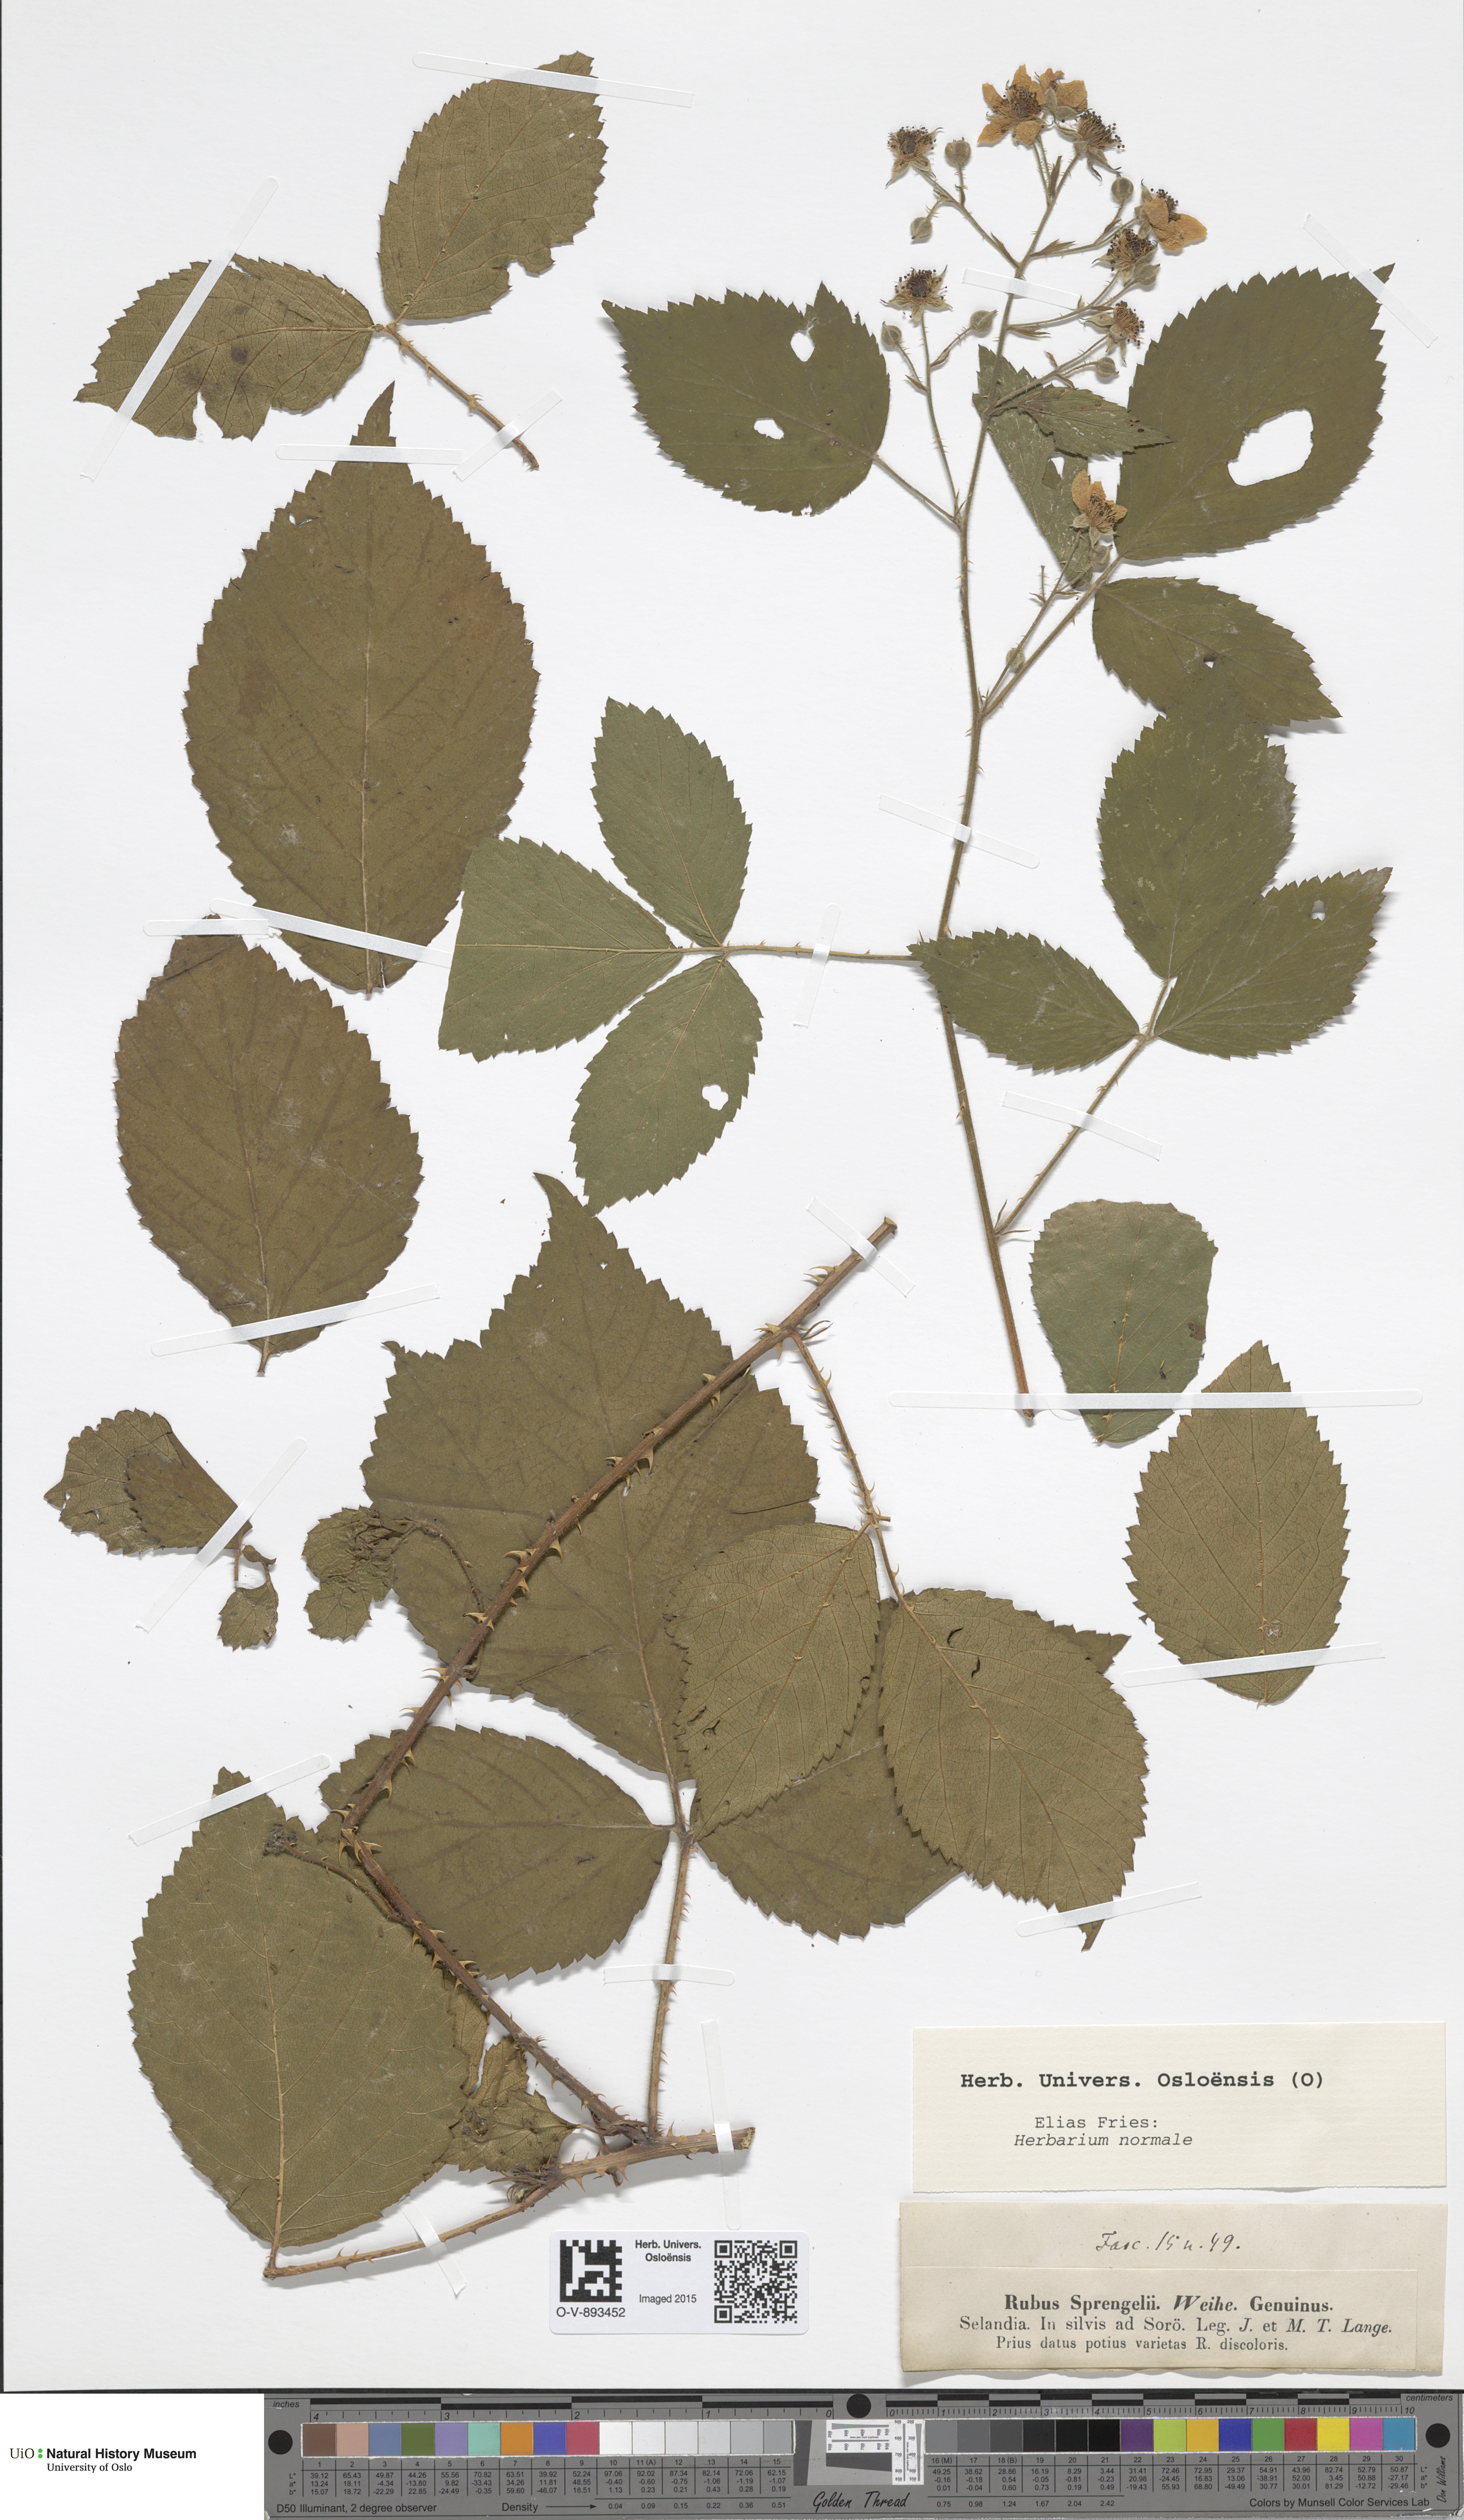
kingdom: Plantae
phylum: Tracheophyta
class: Magnoliopsida
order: Rosales
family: Rosaceae
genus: Rubus
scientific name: Rubus sprengelii
